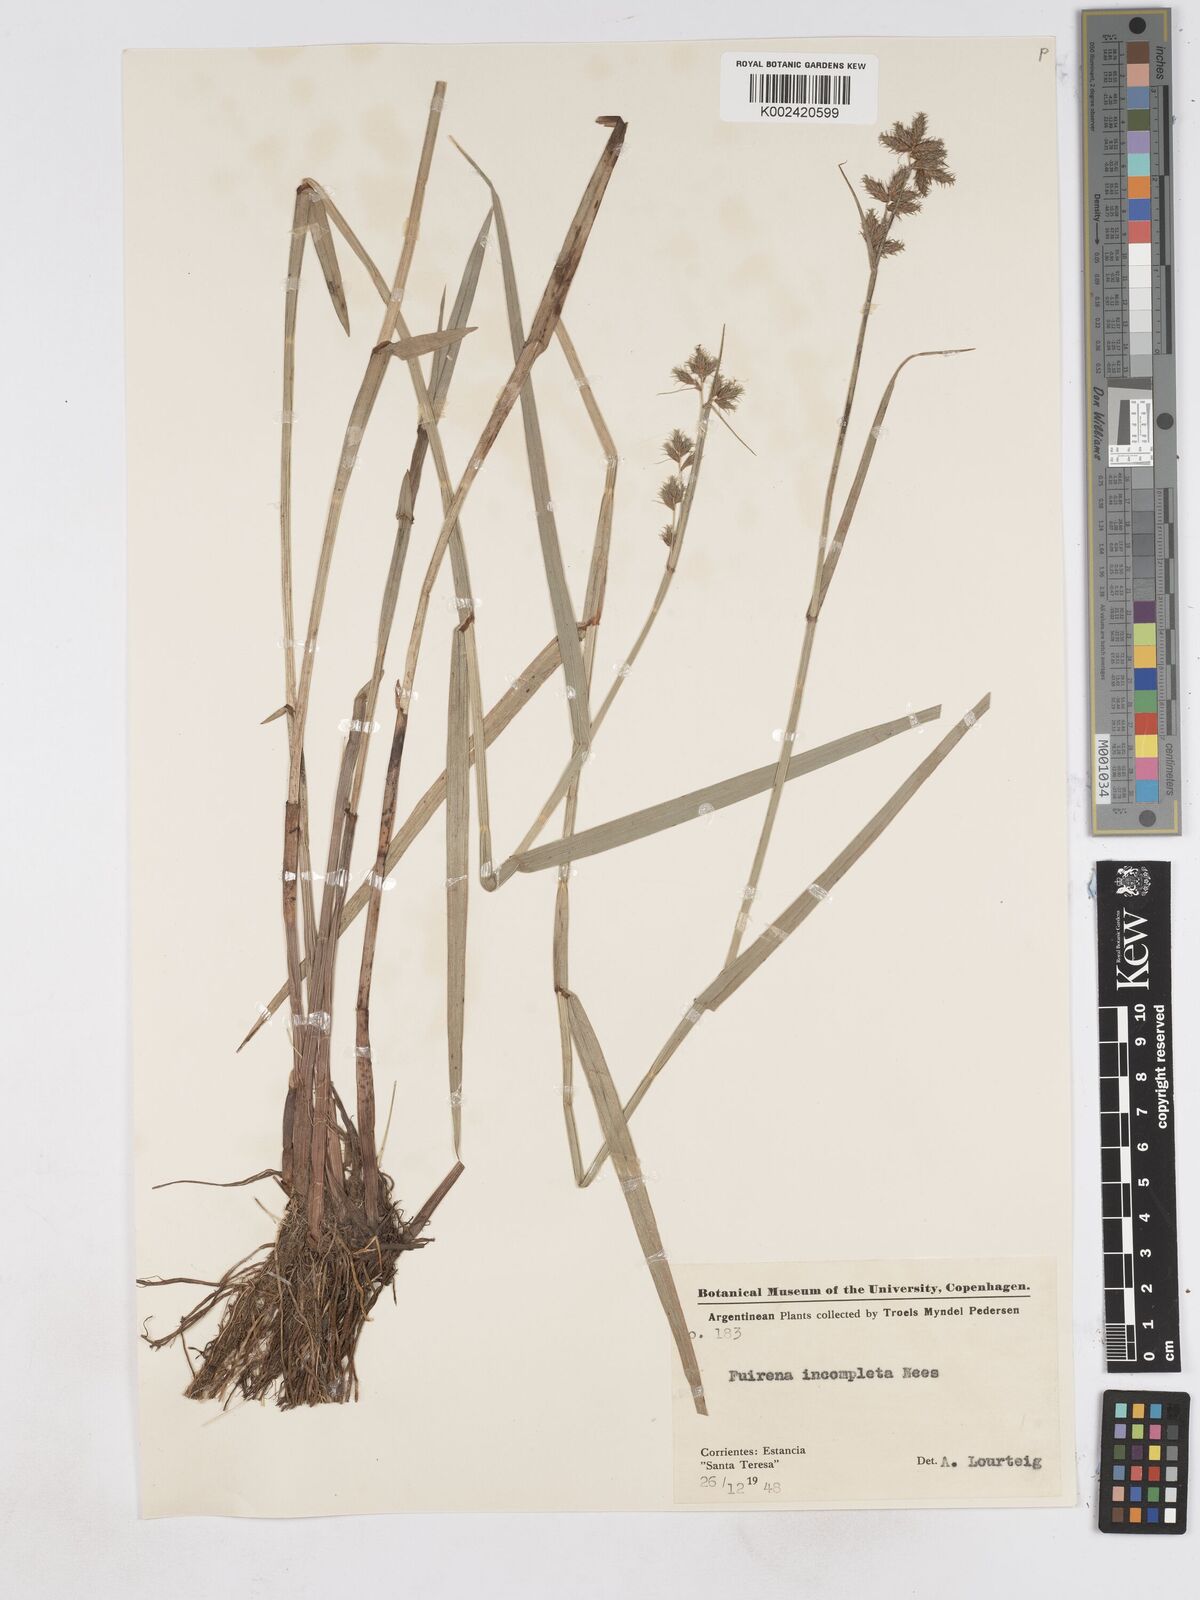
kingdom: Plantae
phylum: Tracheophyta
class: Liliopsida
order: Poales
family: Cyperaceae
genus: Fuirena
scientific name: Fuirena incompleta
